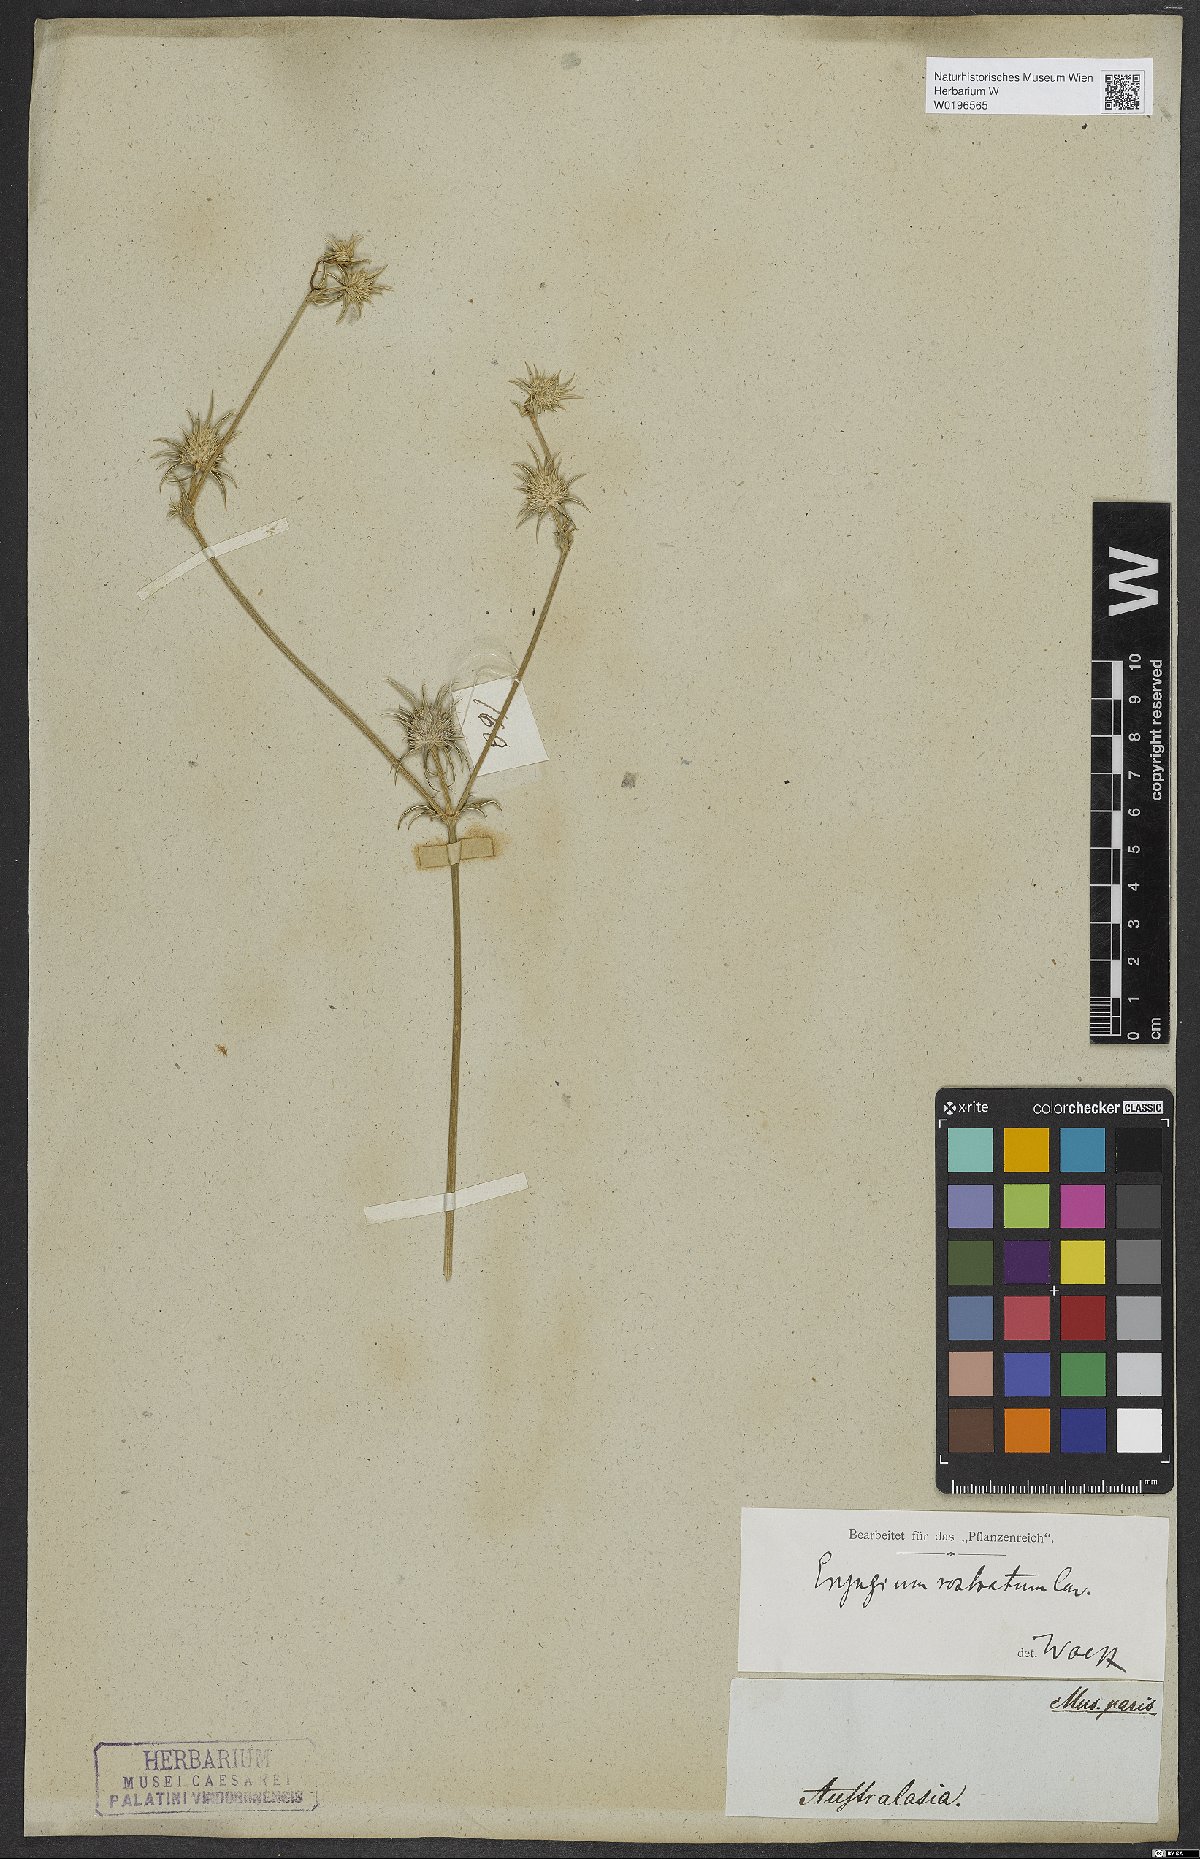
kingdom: Plantae
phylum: Tracheophyta
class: Magnoliopsida
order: Apiales
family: Apiaceae
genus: Eryngium
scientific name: Eryngium rostratum
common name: Blue eryngo
